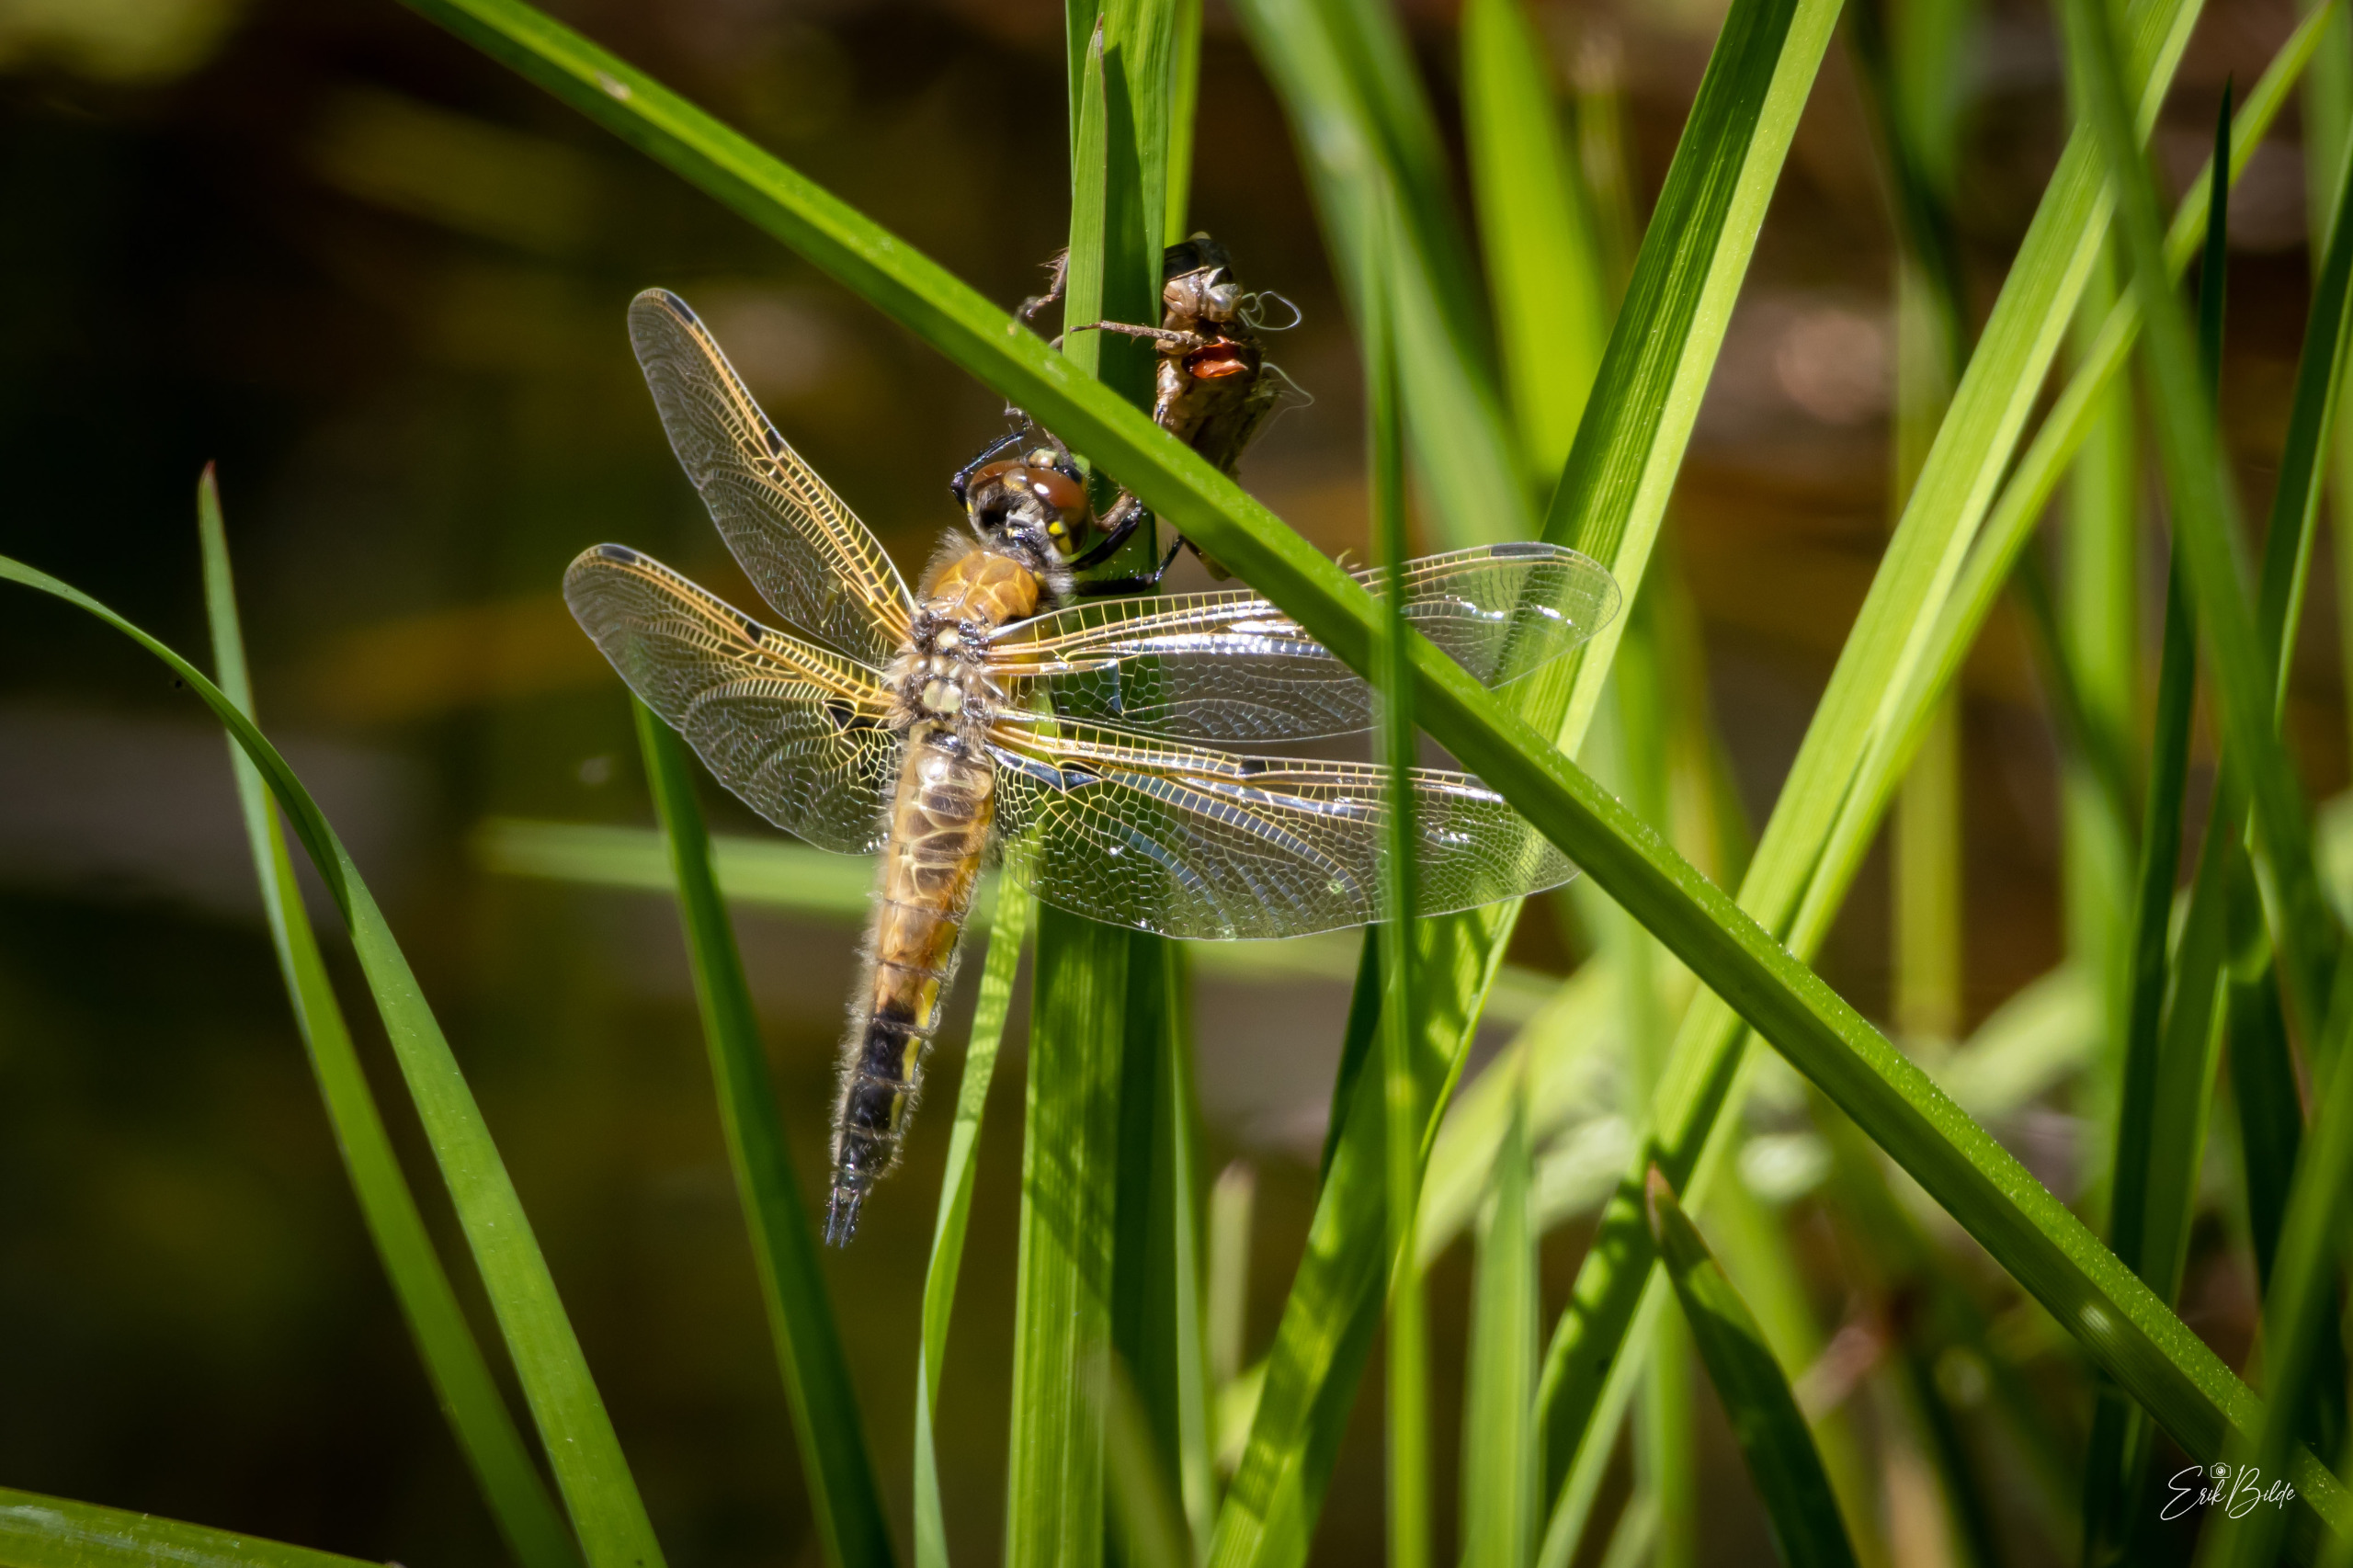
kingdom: Animalia
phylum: Arthropoda
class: Insecta
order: Odonata
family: Libellulidae
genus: Libellula
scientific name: Libellula quadrimaculata
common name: Fireplettet libel
